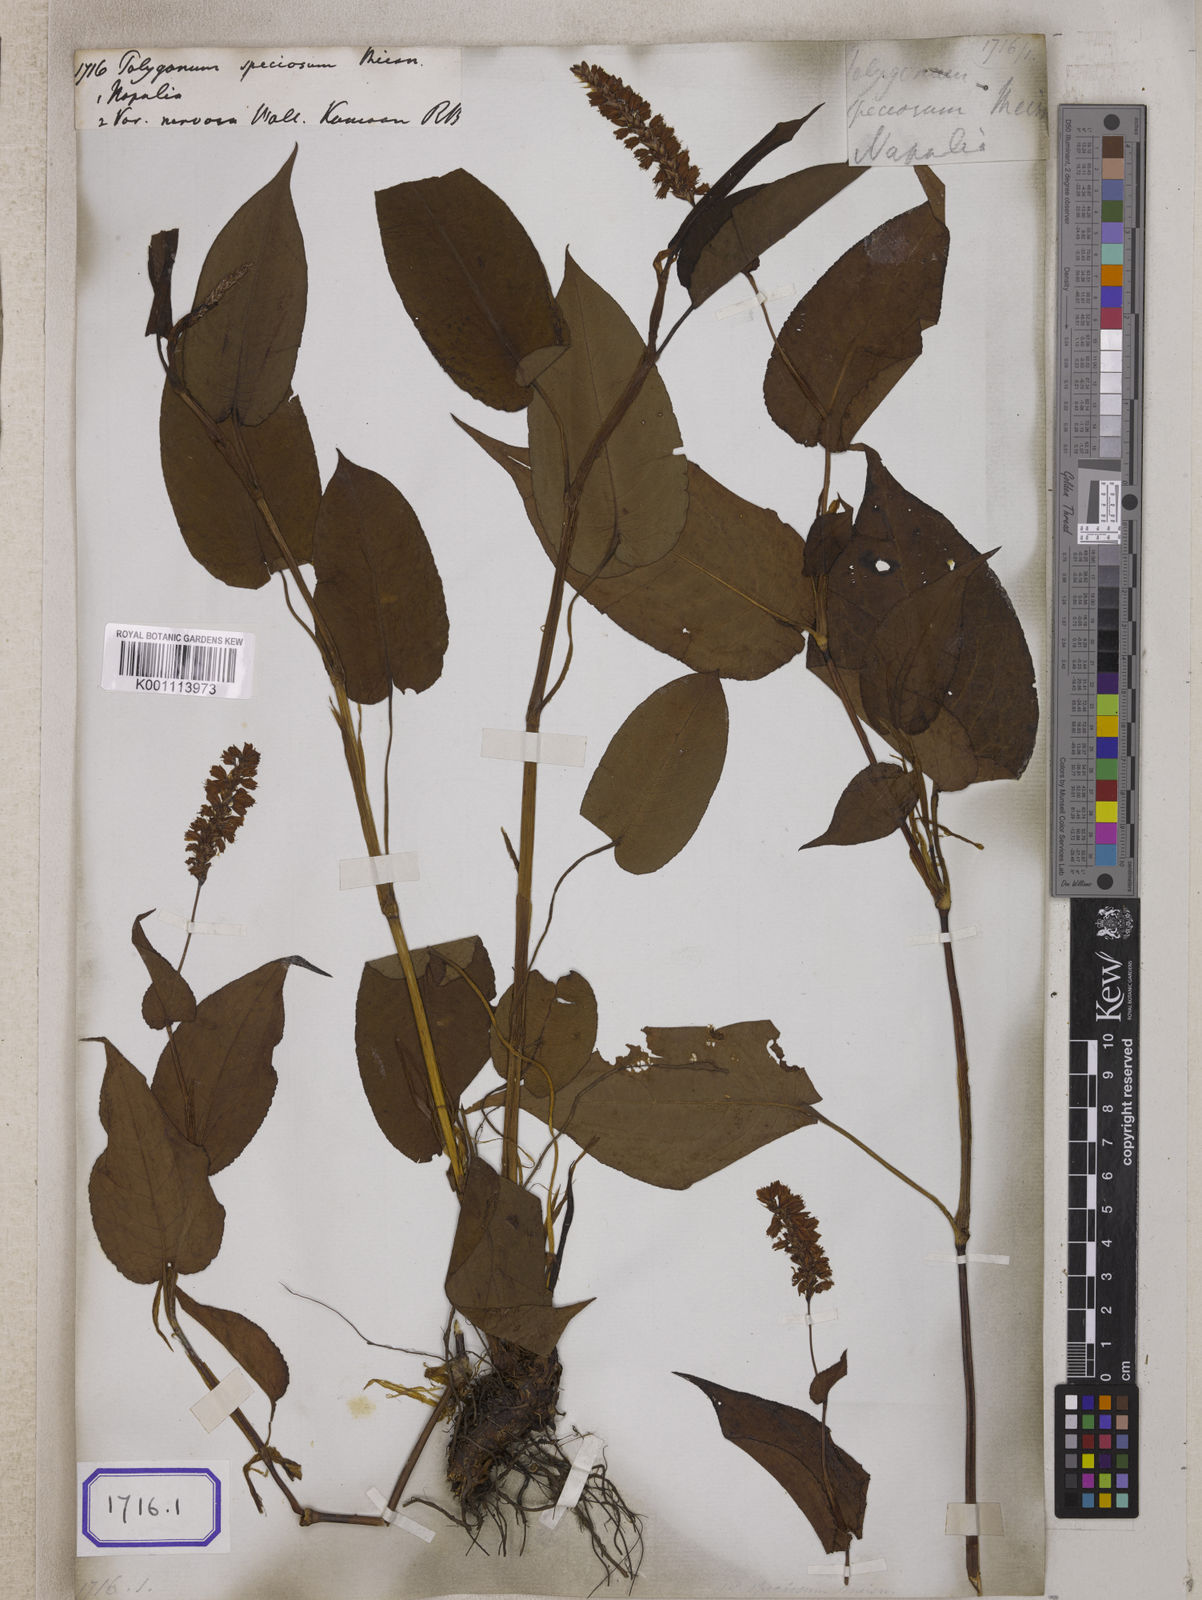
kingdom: Plantae
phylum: Tracheophyta
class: Magnoliopsida
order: Caryophyllales
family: Polygonaceae
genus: Polygonum
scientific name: Polygonum
